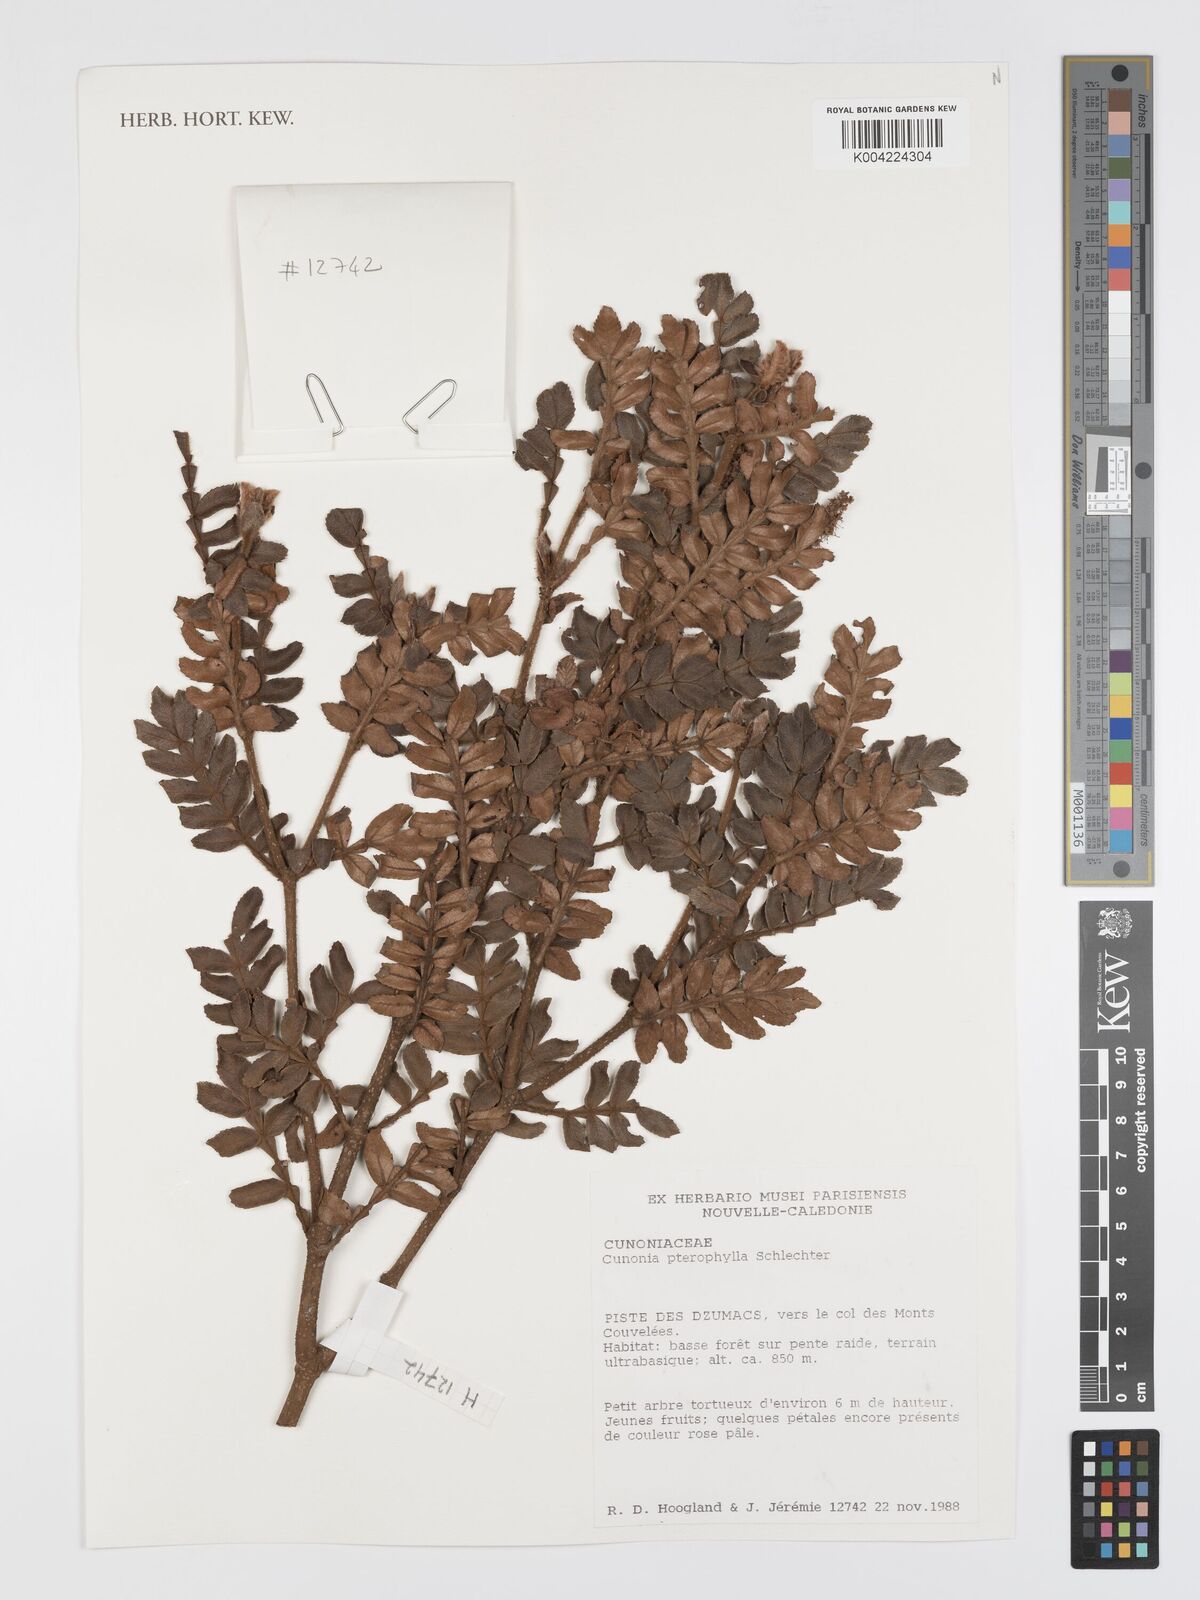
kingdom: Plantae
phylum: Tracheophyta
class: Magnoliopsida
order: Oxalidales
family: Cunoniaceae
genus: Cunonia
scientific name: Cunonia pterophylla
